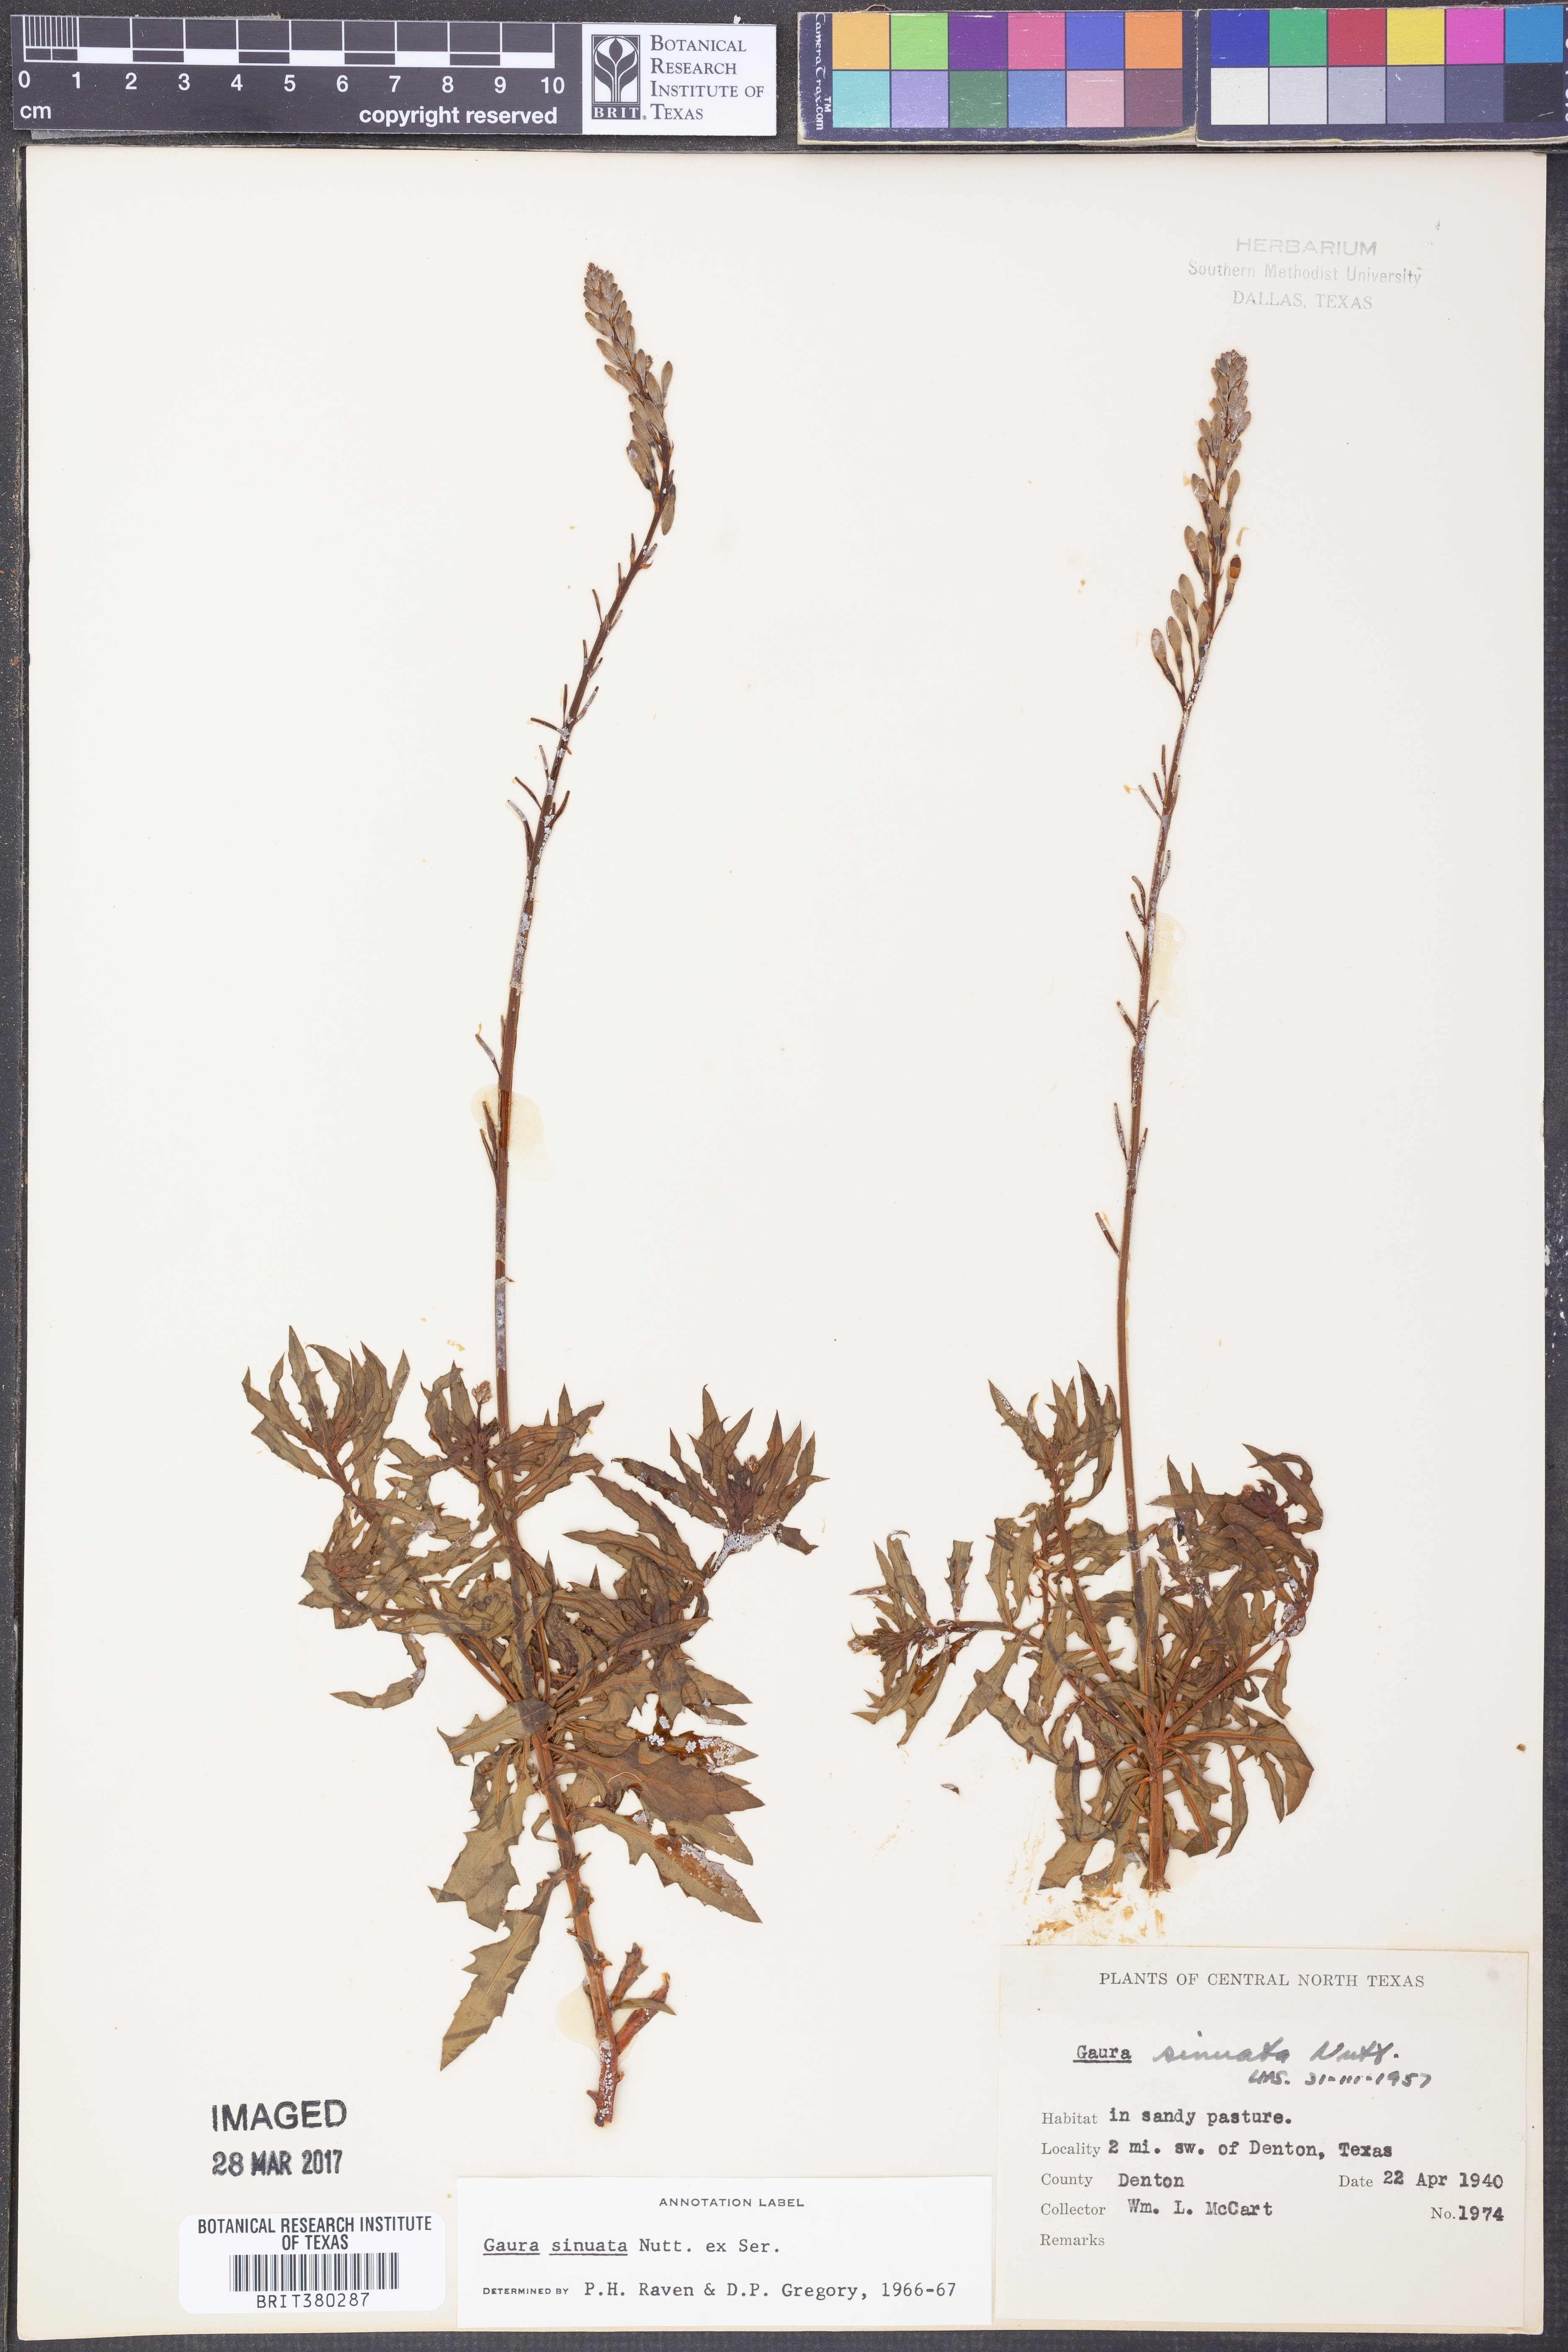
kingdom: Plantae
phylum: Tracheophyta
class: Magnoliopsida
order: Myrtales
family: Onagraceae
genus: Oenothera
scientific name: Oenothera sinuosa
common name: Wavyleaf beeblossom
